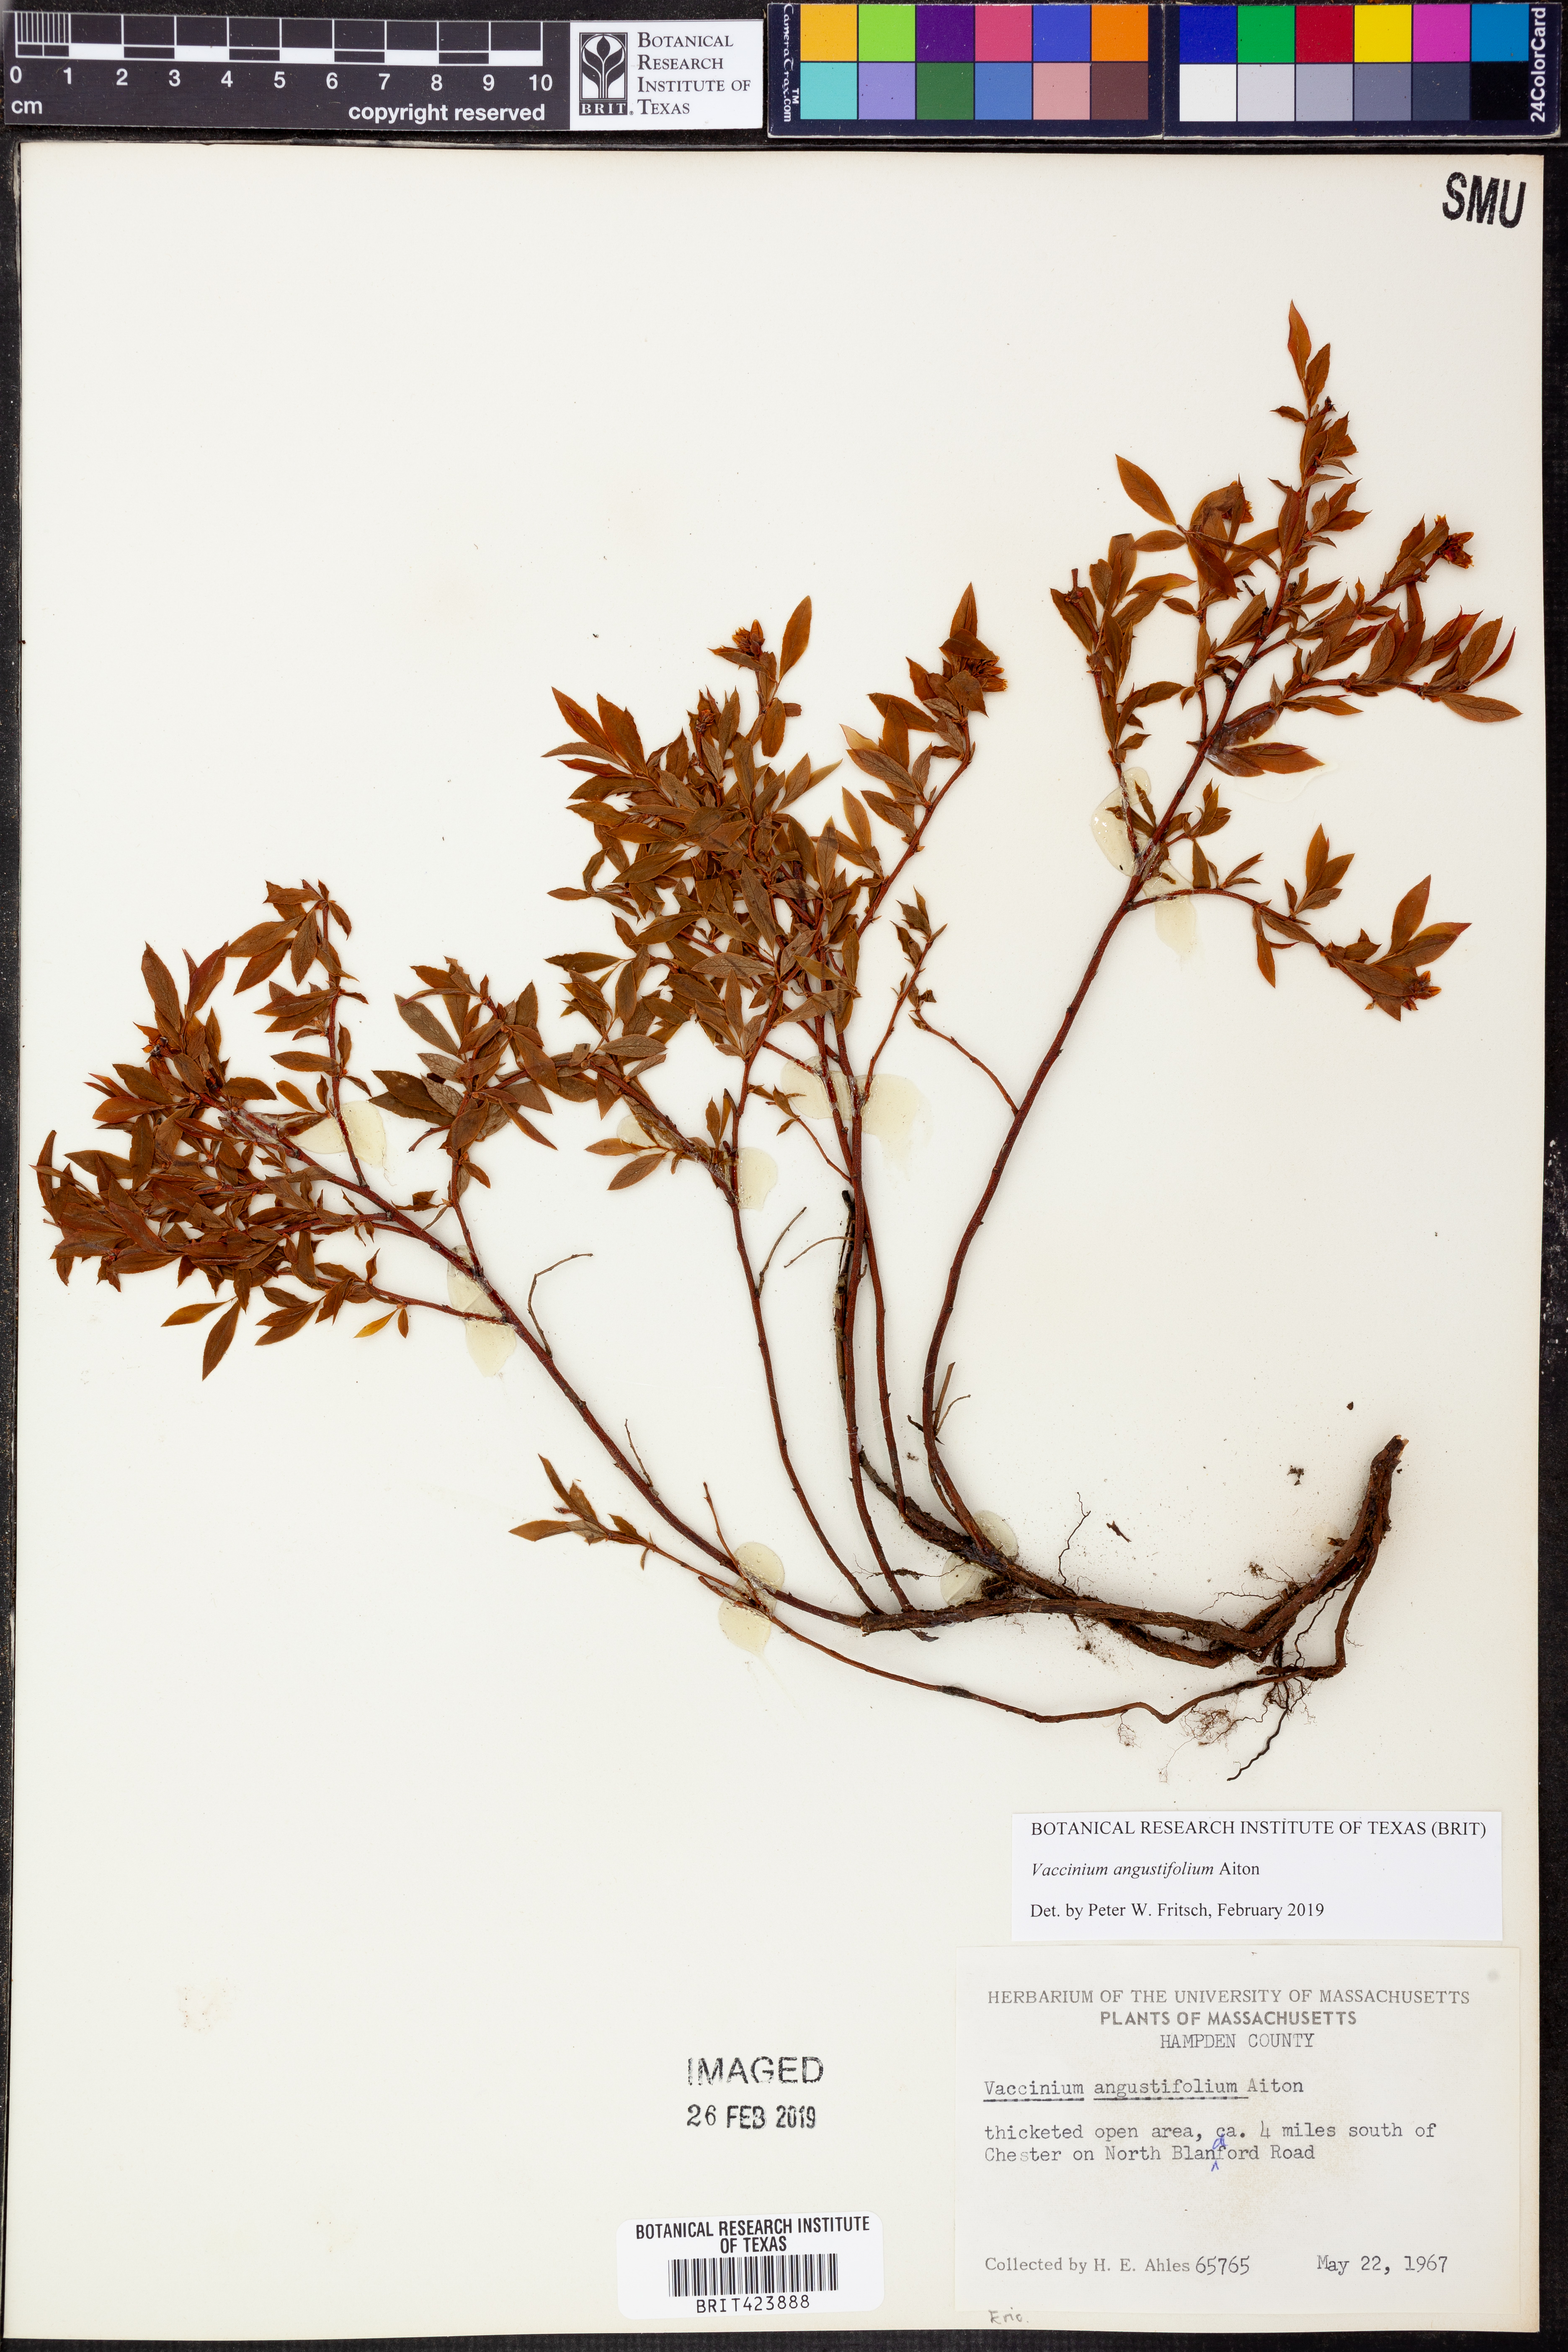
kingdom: Plantae
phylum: Tracheophyta
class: Magnoliopsida
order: Ericales
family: Ericaceae
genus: Vaccinium
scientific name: Vaccinium angustifolium
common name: Early lowbush blueberry
